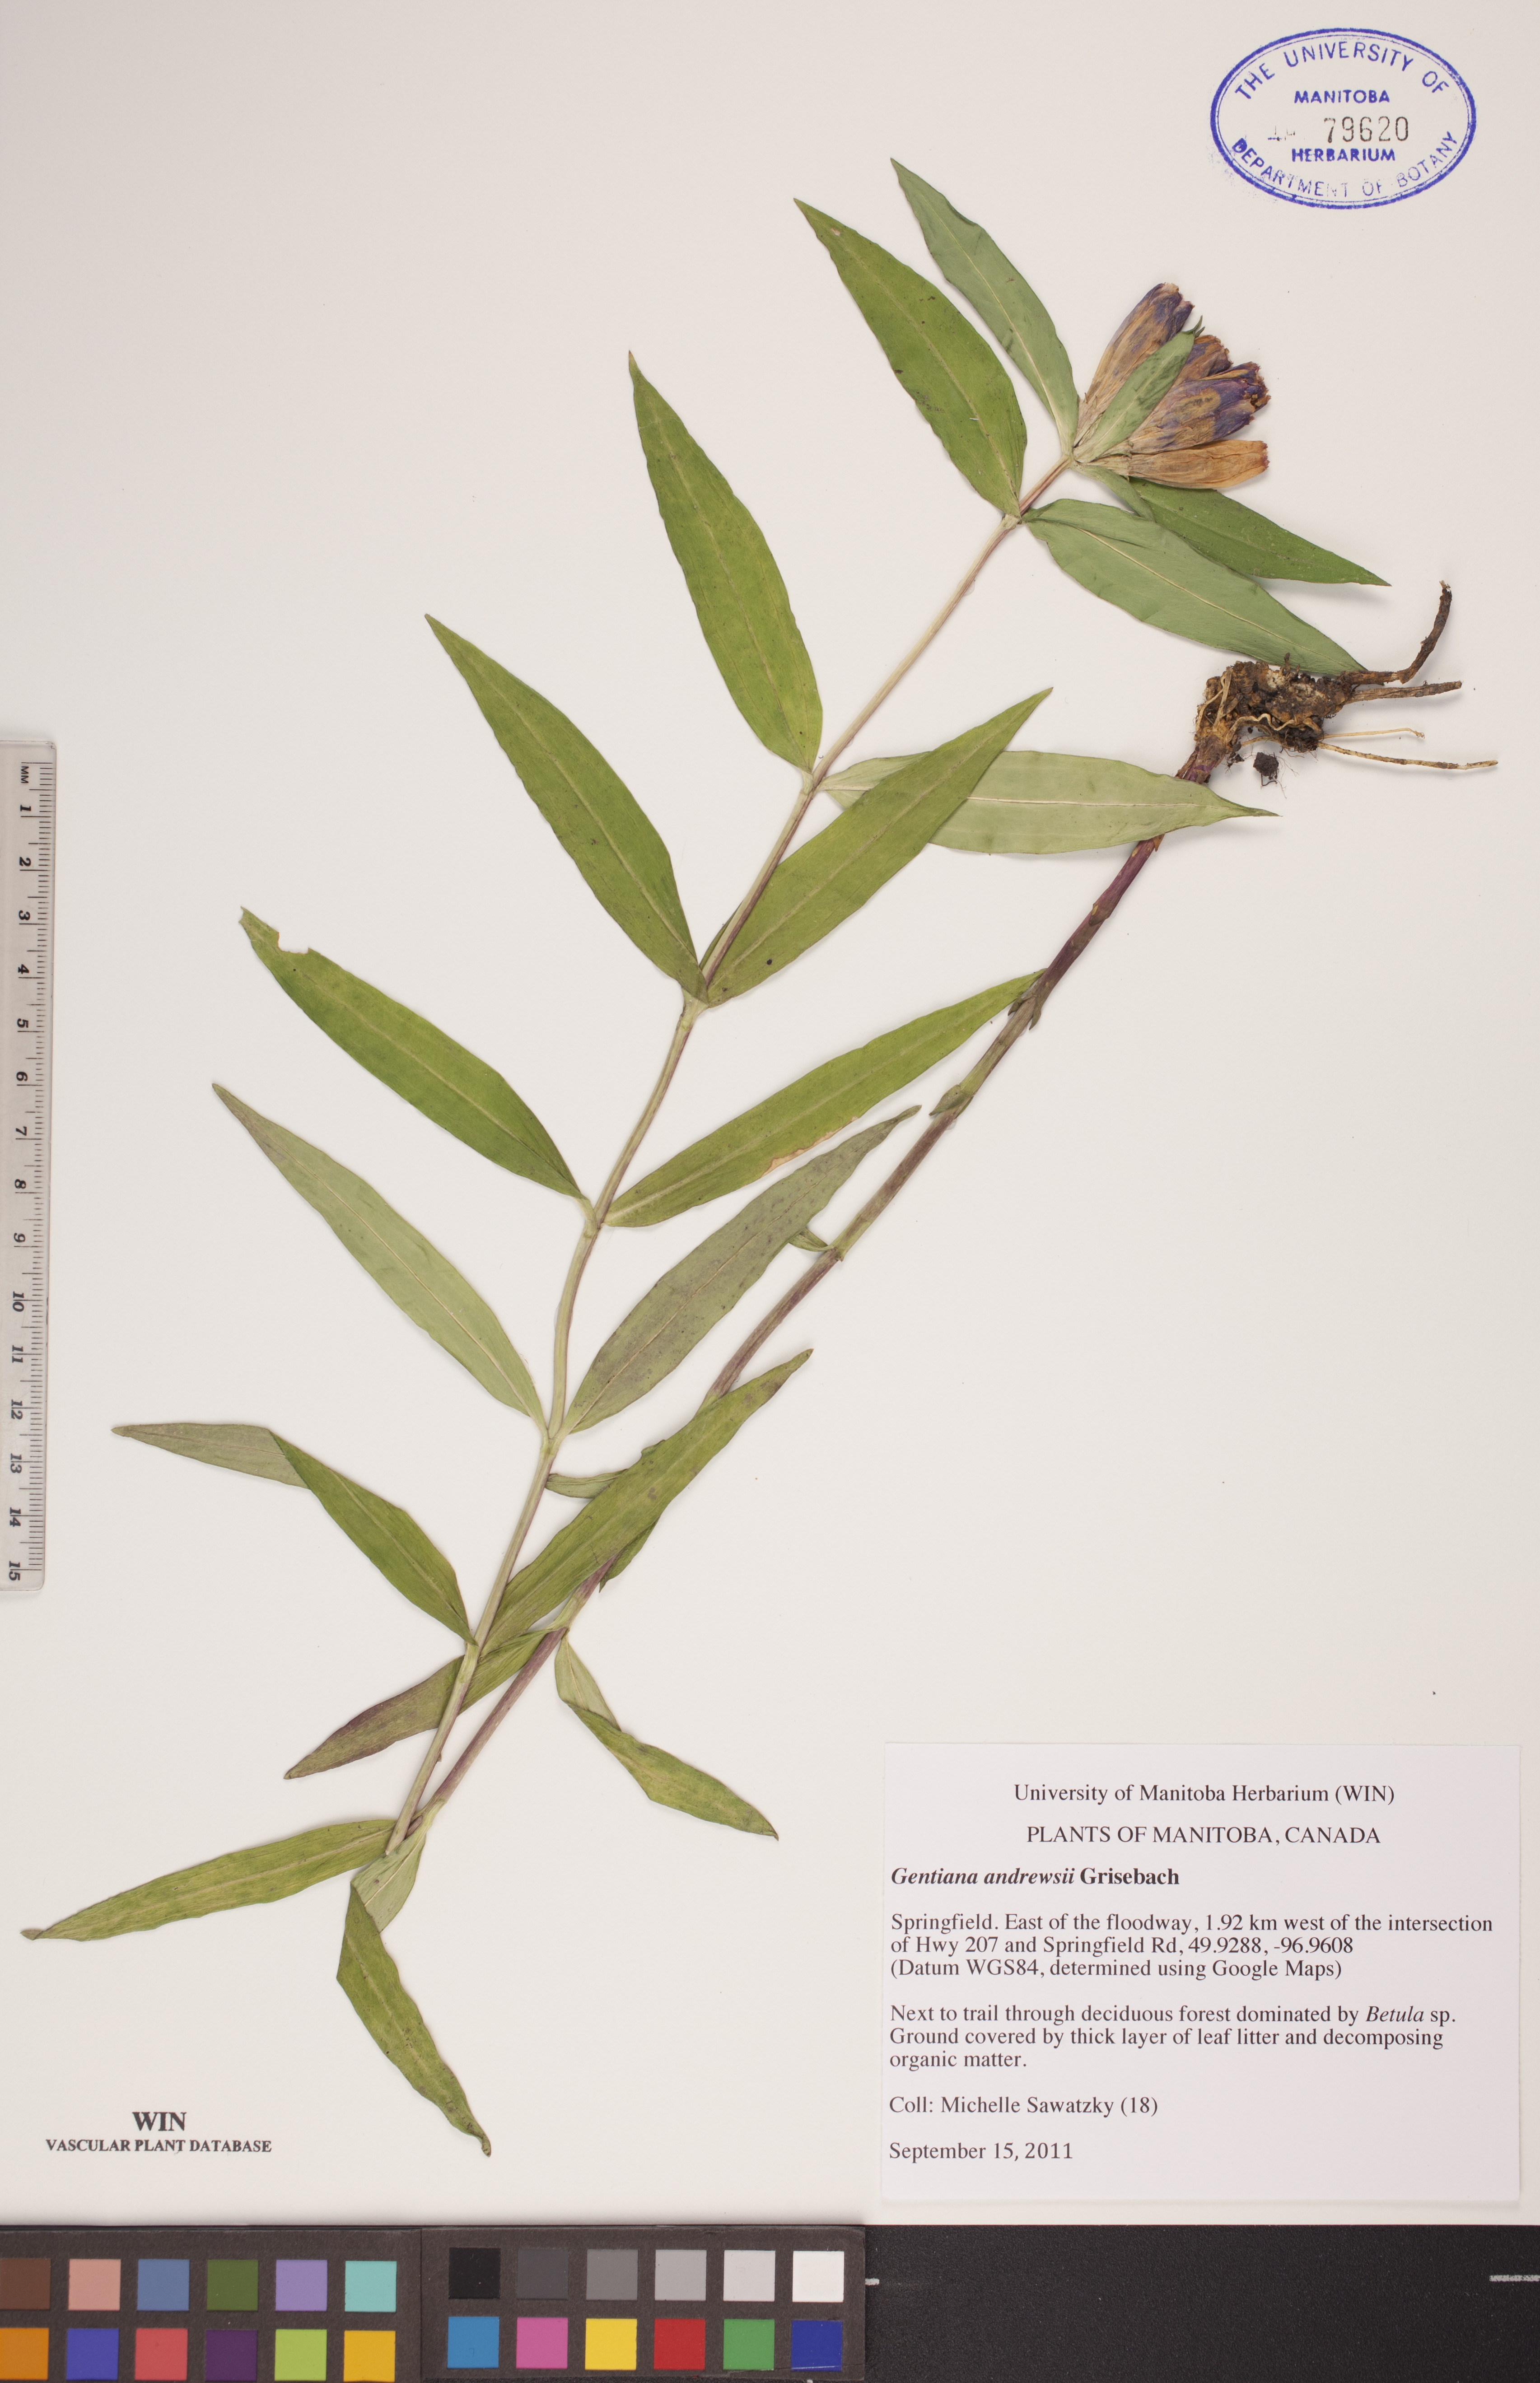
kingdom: Plantae
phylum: Tracheophyta
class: Magnoliopsida
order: Gentianales
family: Gentianaceae
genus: Gentiana
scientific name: Gentiana andrewsii
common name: Bottle gentian
